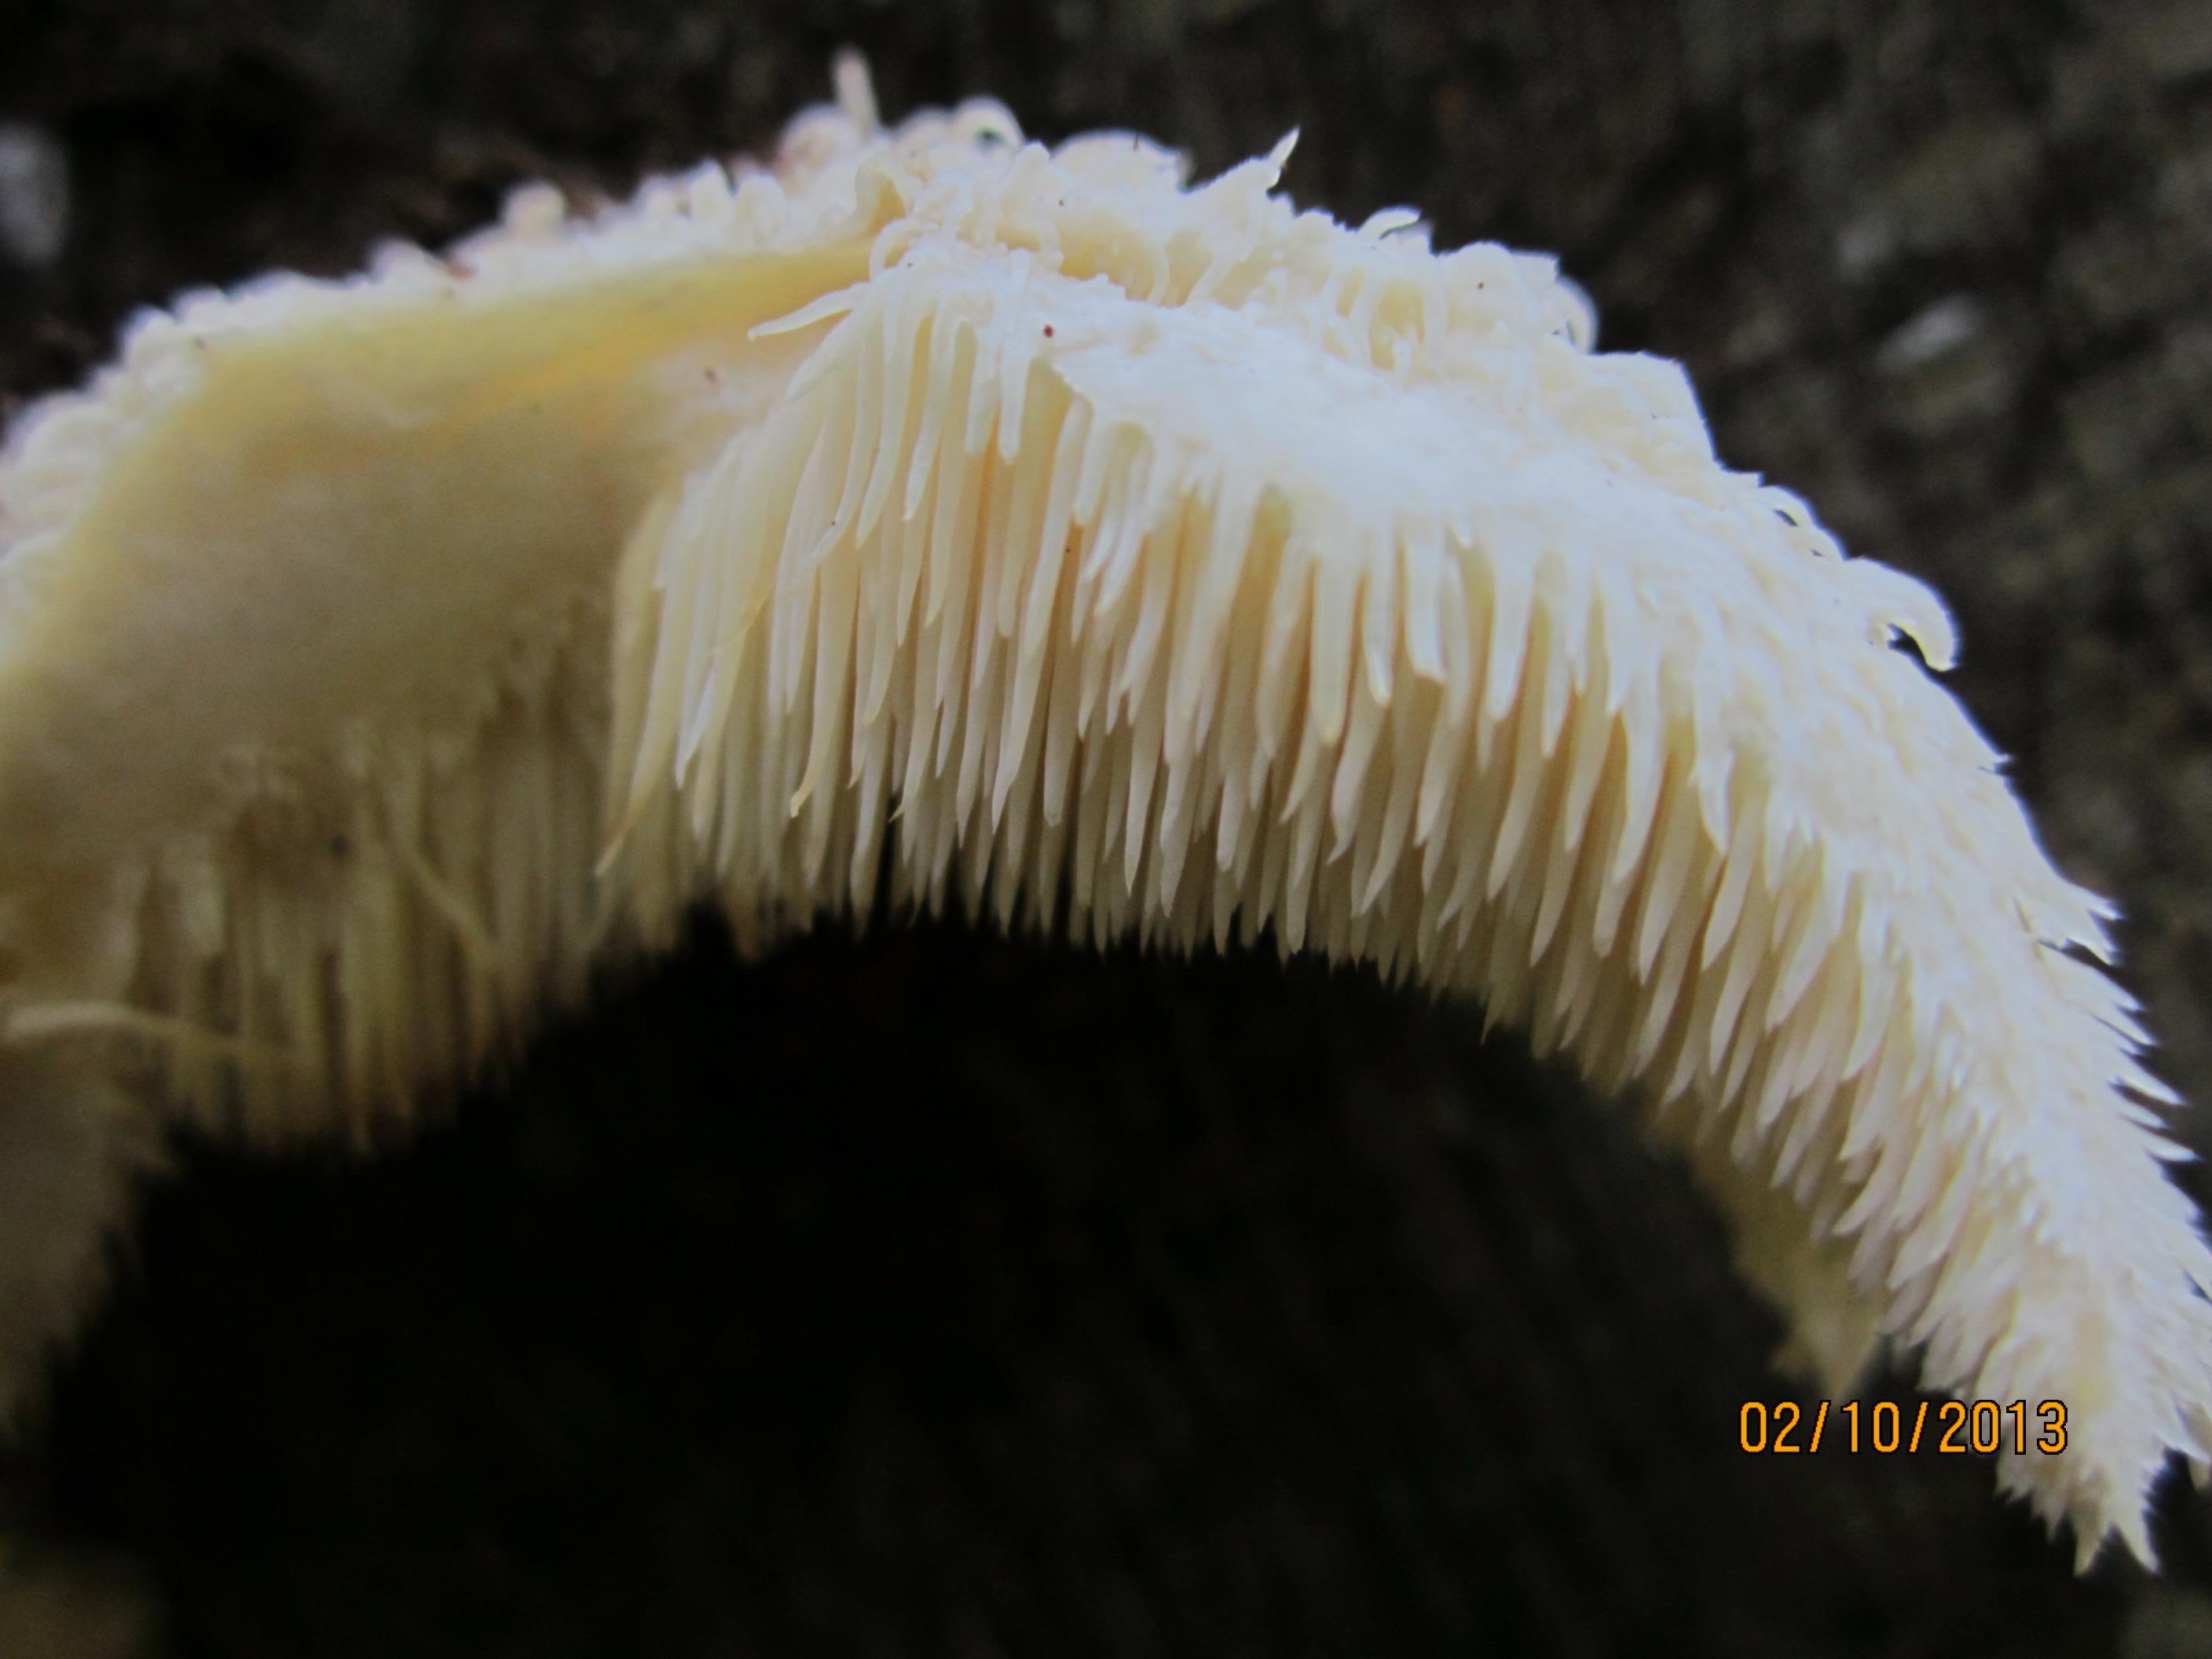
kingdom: Fungi
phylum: Basidiomycota
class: Agaricomycetes
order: Russulales
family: Hericiaceae
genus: Hericium
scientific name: Hericium cirrhatum
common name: børstepigsvamp
